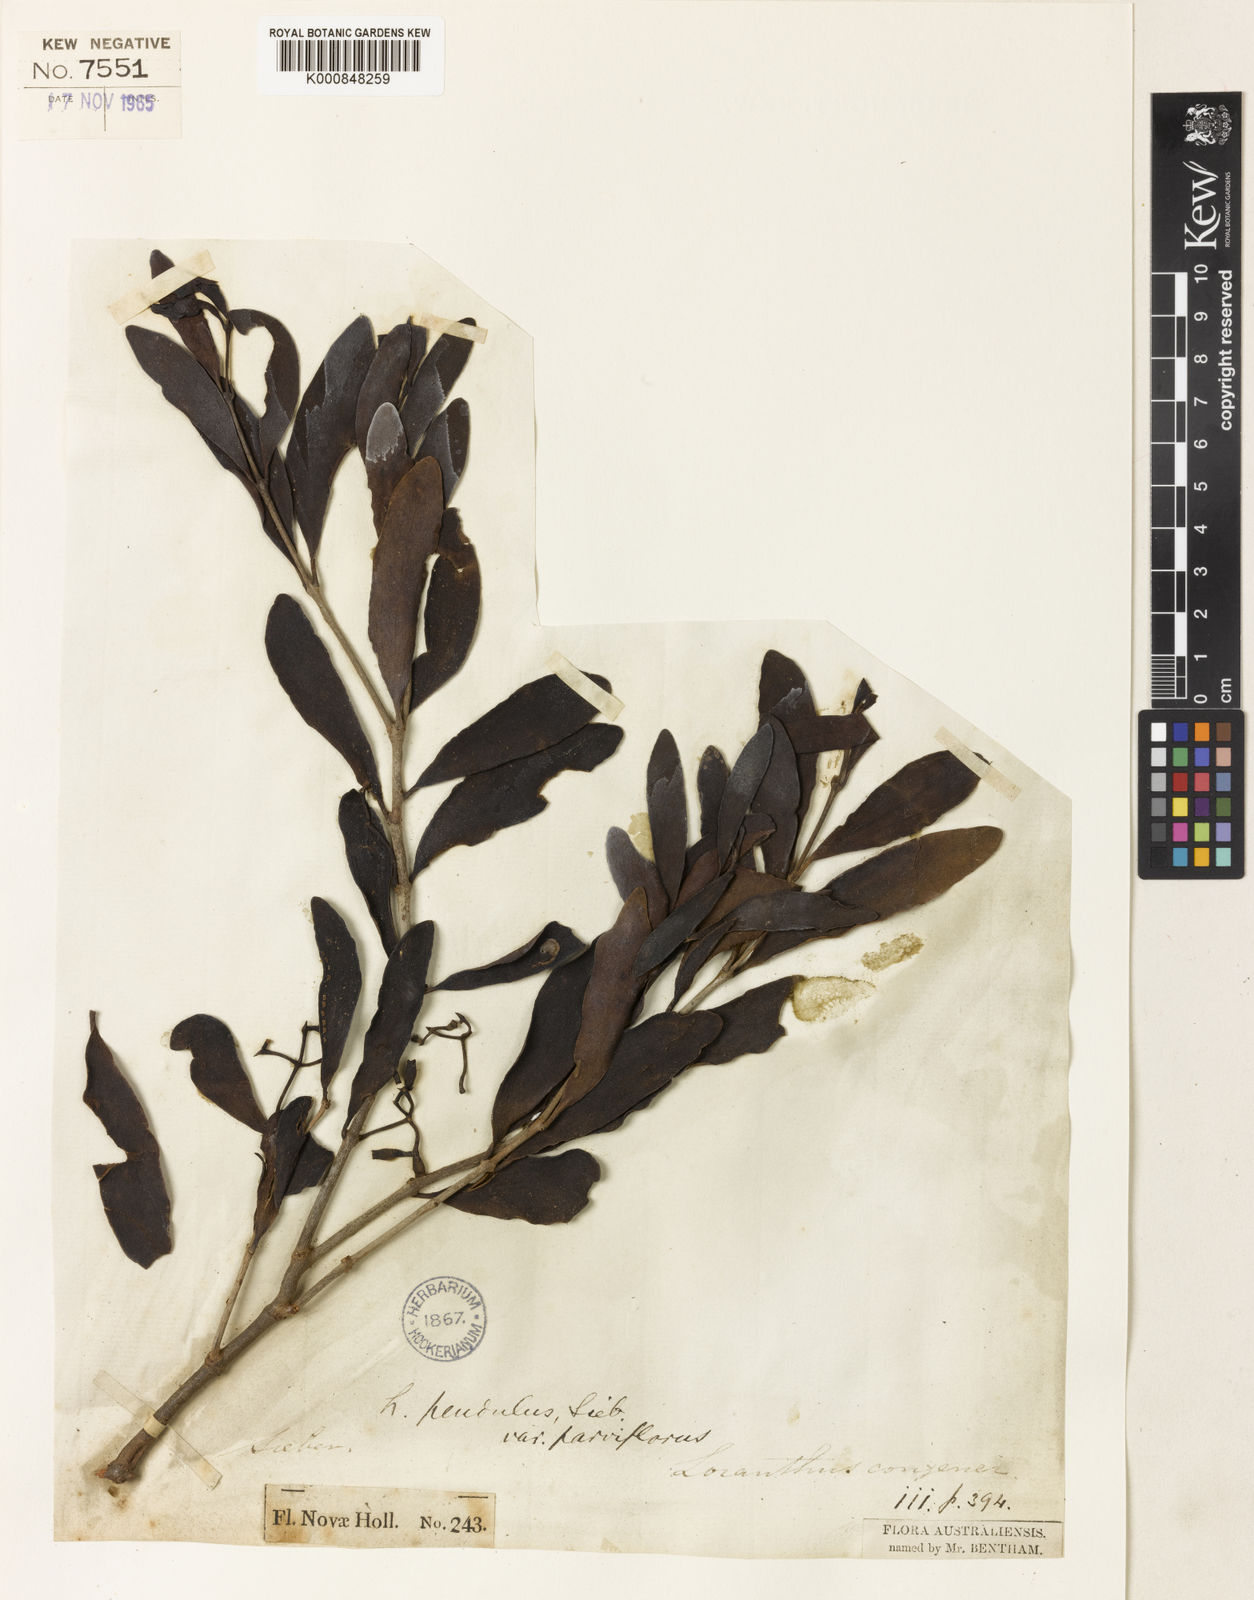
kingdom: Plantae
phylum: Tracheophyta
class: Magnoliopsida
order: Santalales
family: Loranthaceae
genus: Amyema
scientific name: Amyema
